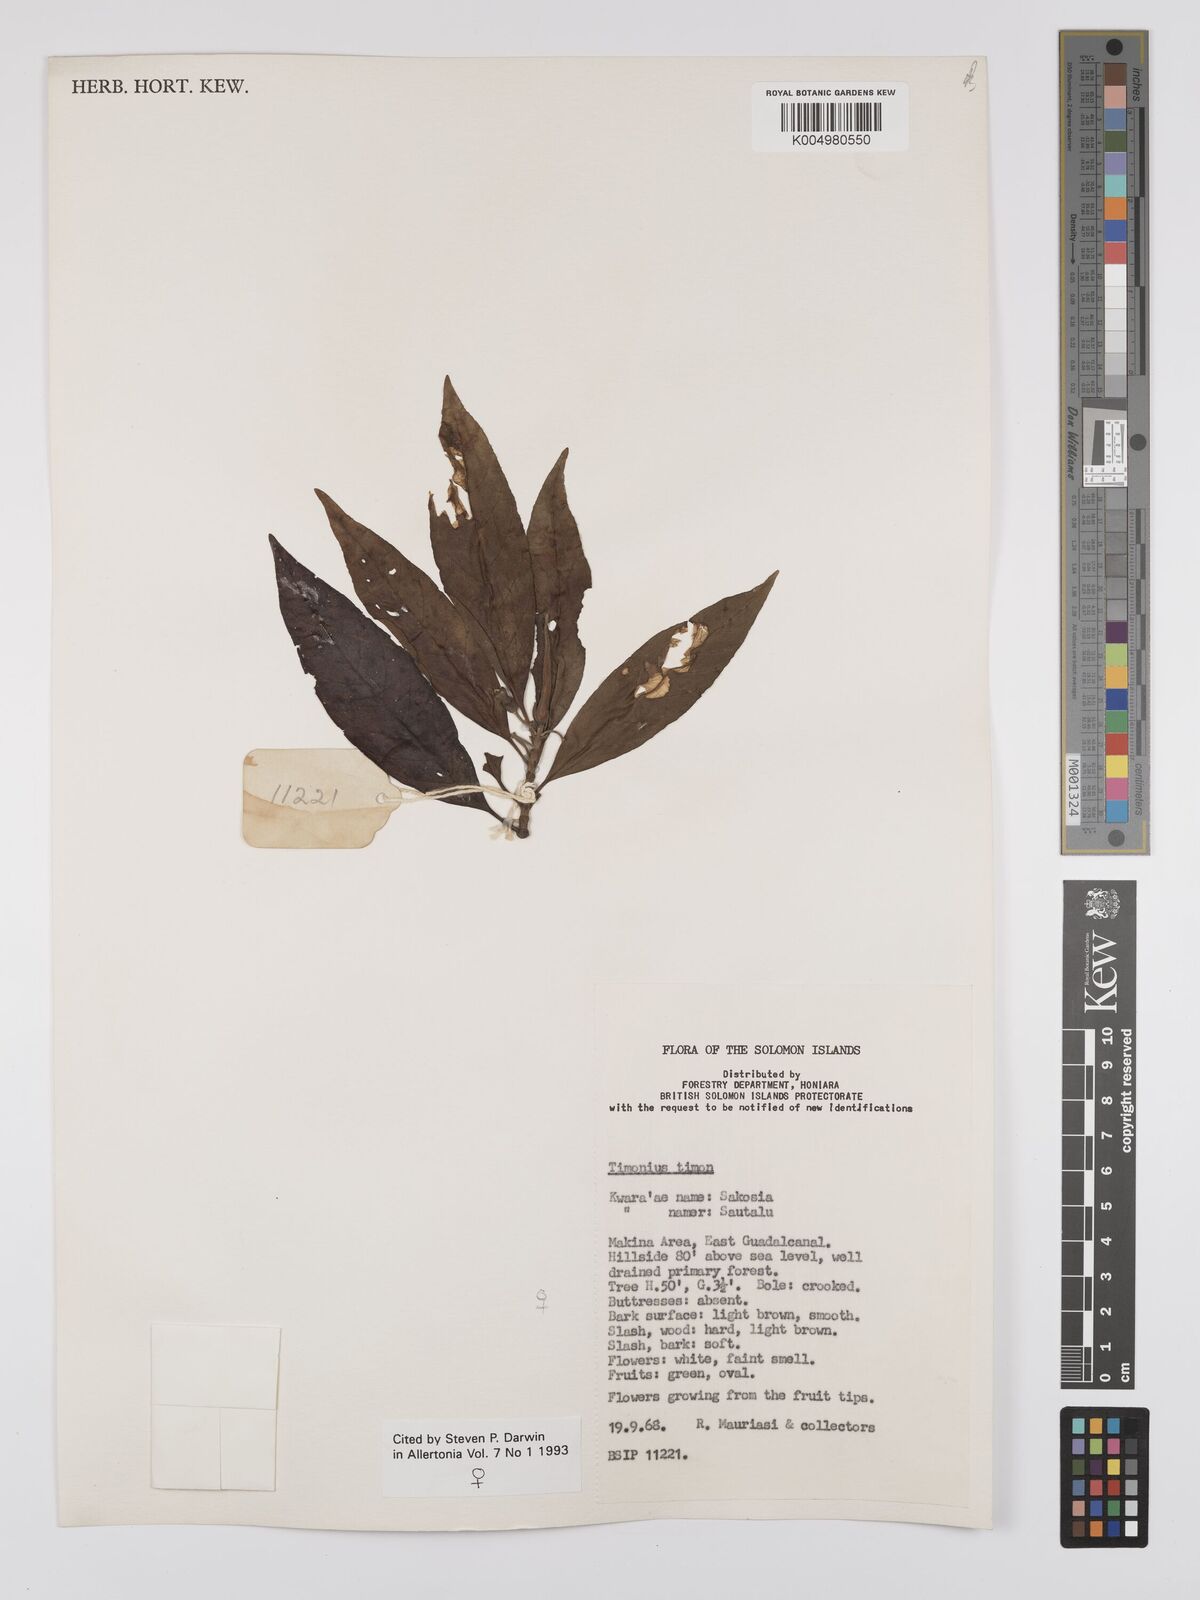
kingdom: Plantae
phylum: Tracheophyta
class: Magnoliopsida
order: Gentianales
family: Rubiaceae
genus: Timonius
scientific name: Timonius timon
